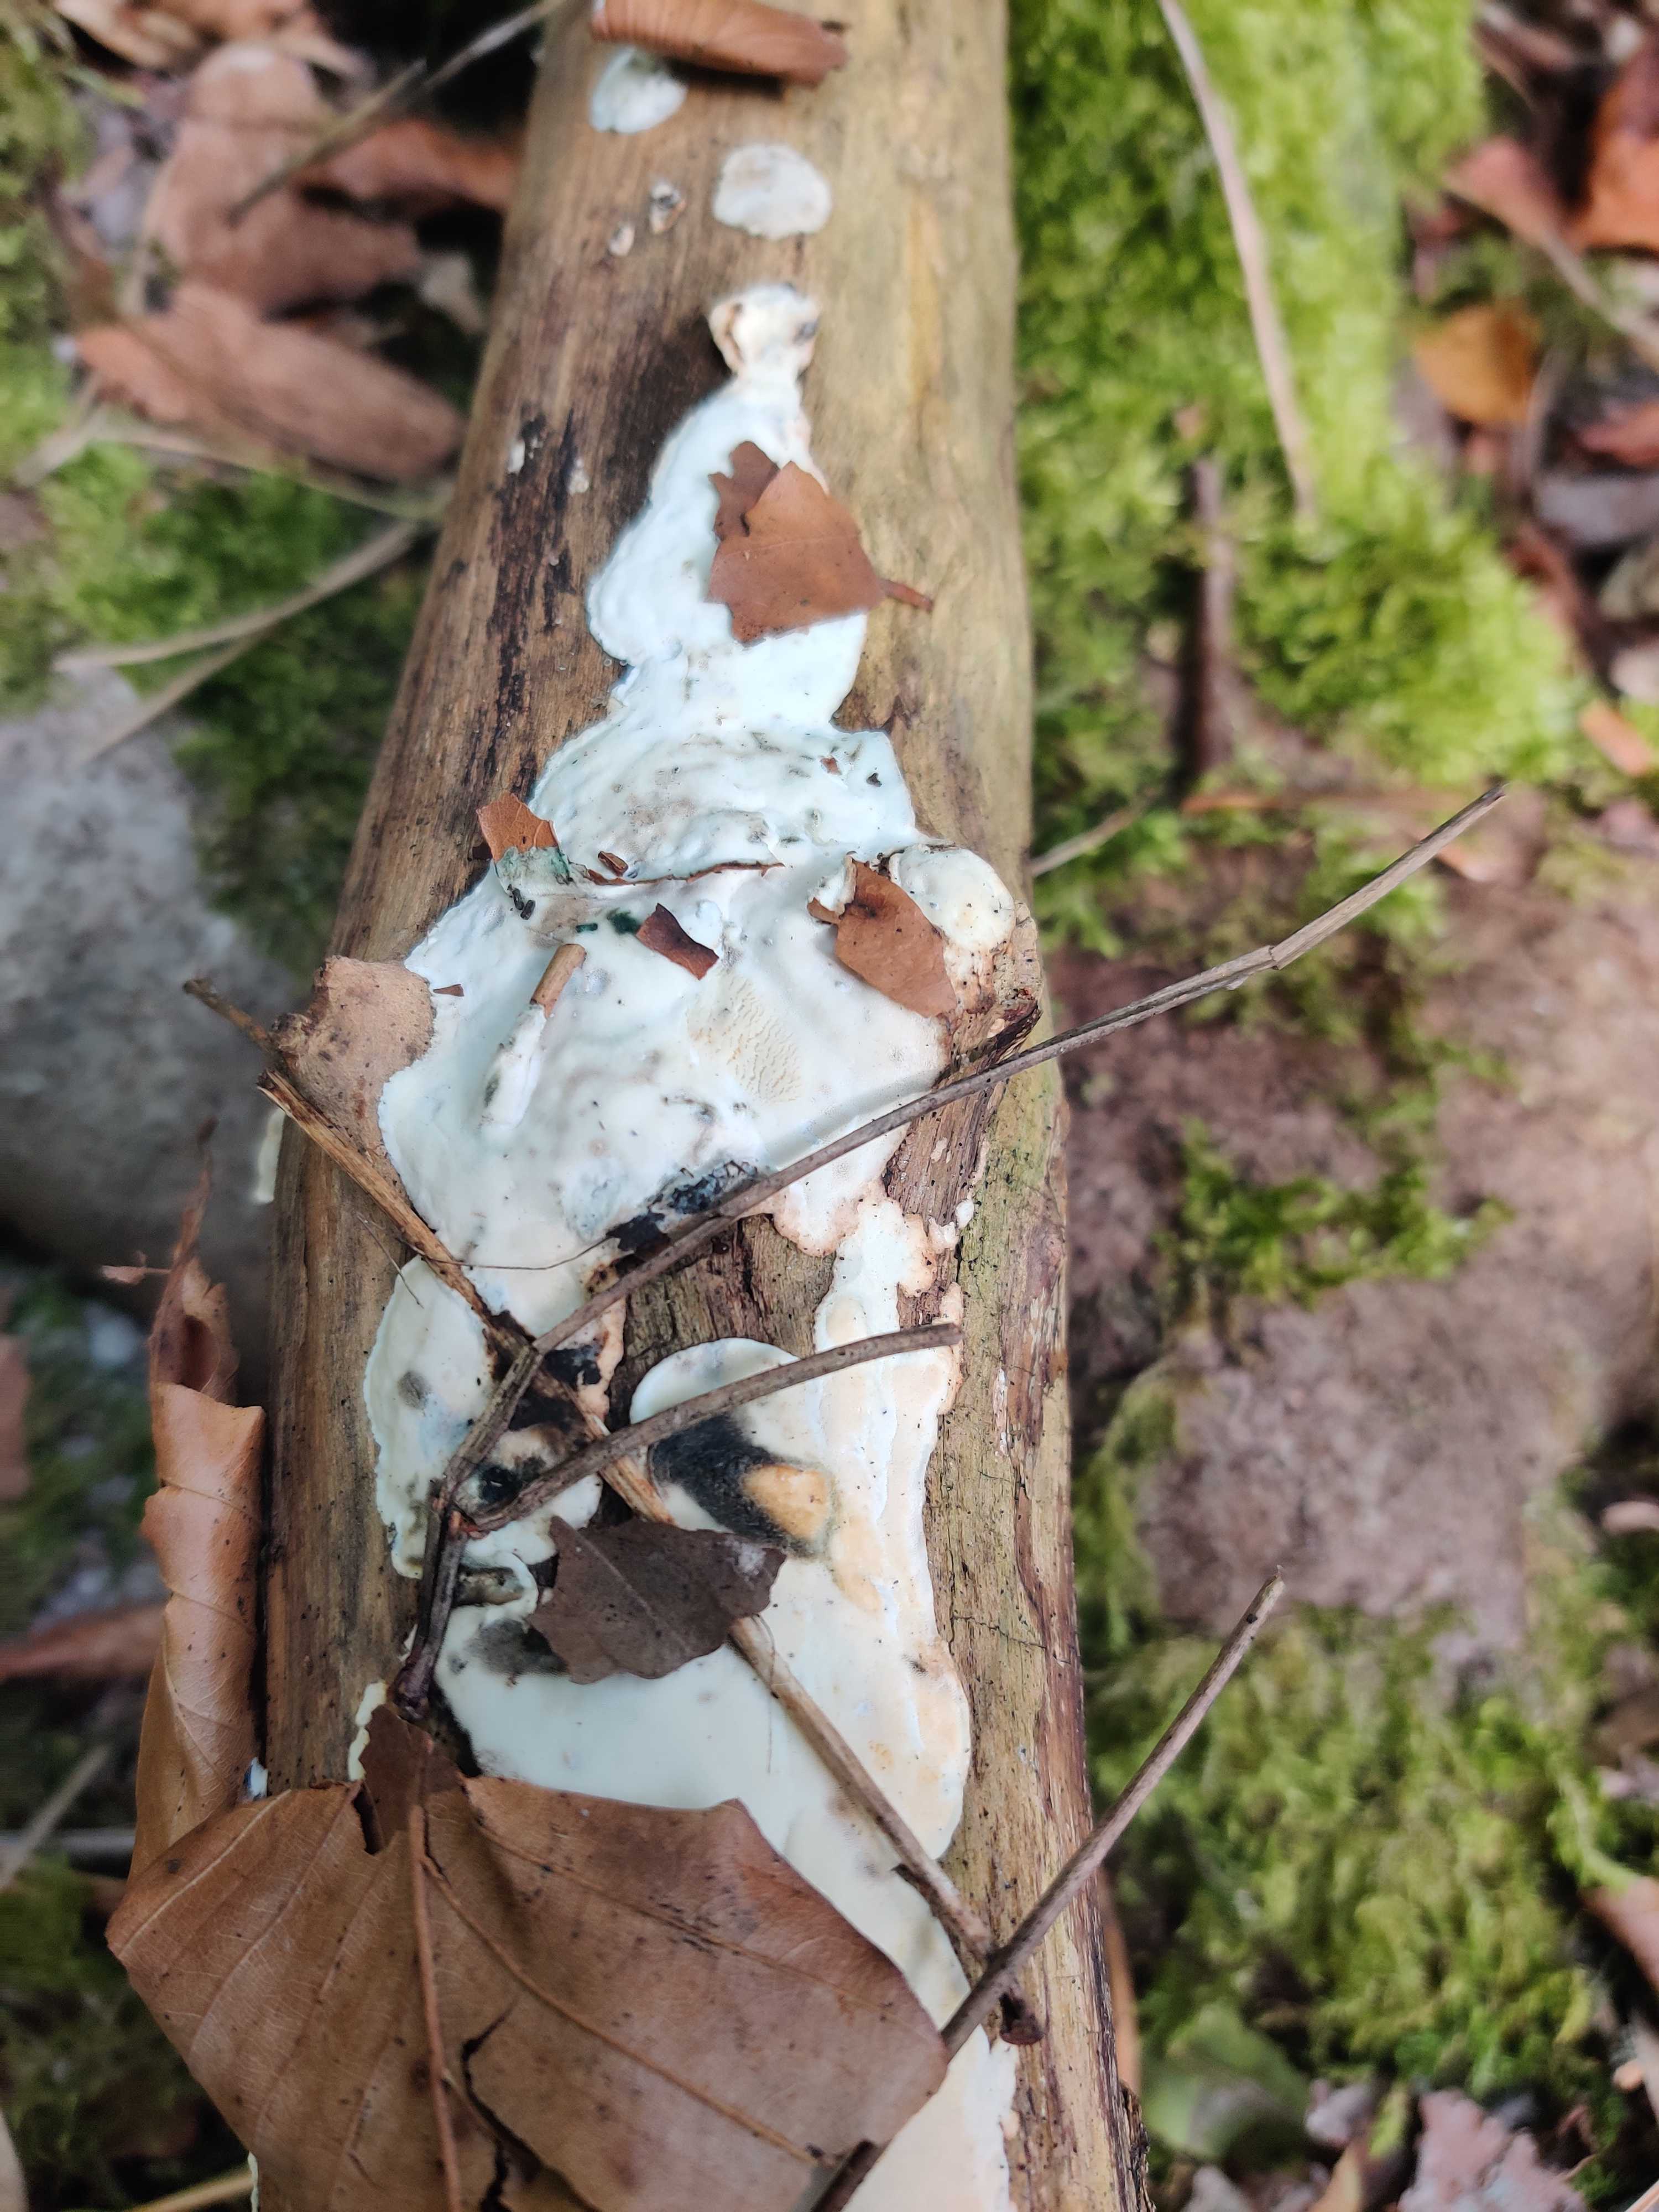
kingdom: Fungi
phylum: Basidiomycota
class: Agaricomycetes
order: Polyporales
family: Incrustoporiaceae
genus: Skeletocutis
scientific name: Skeletocutis nemoralis
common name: stor krystalporesvamp
